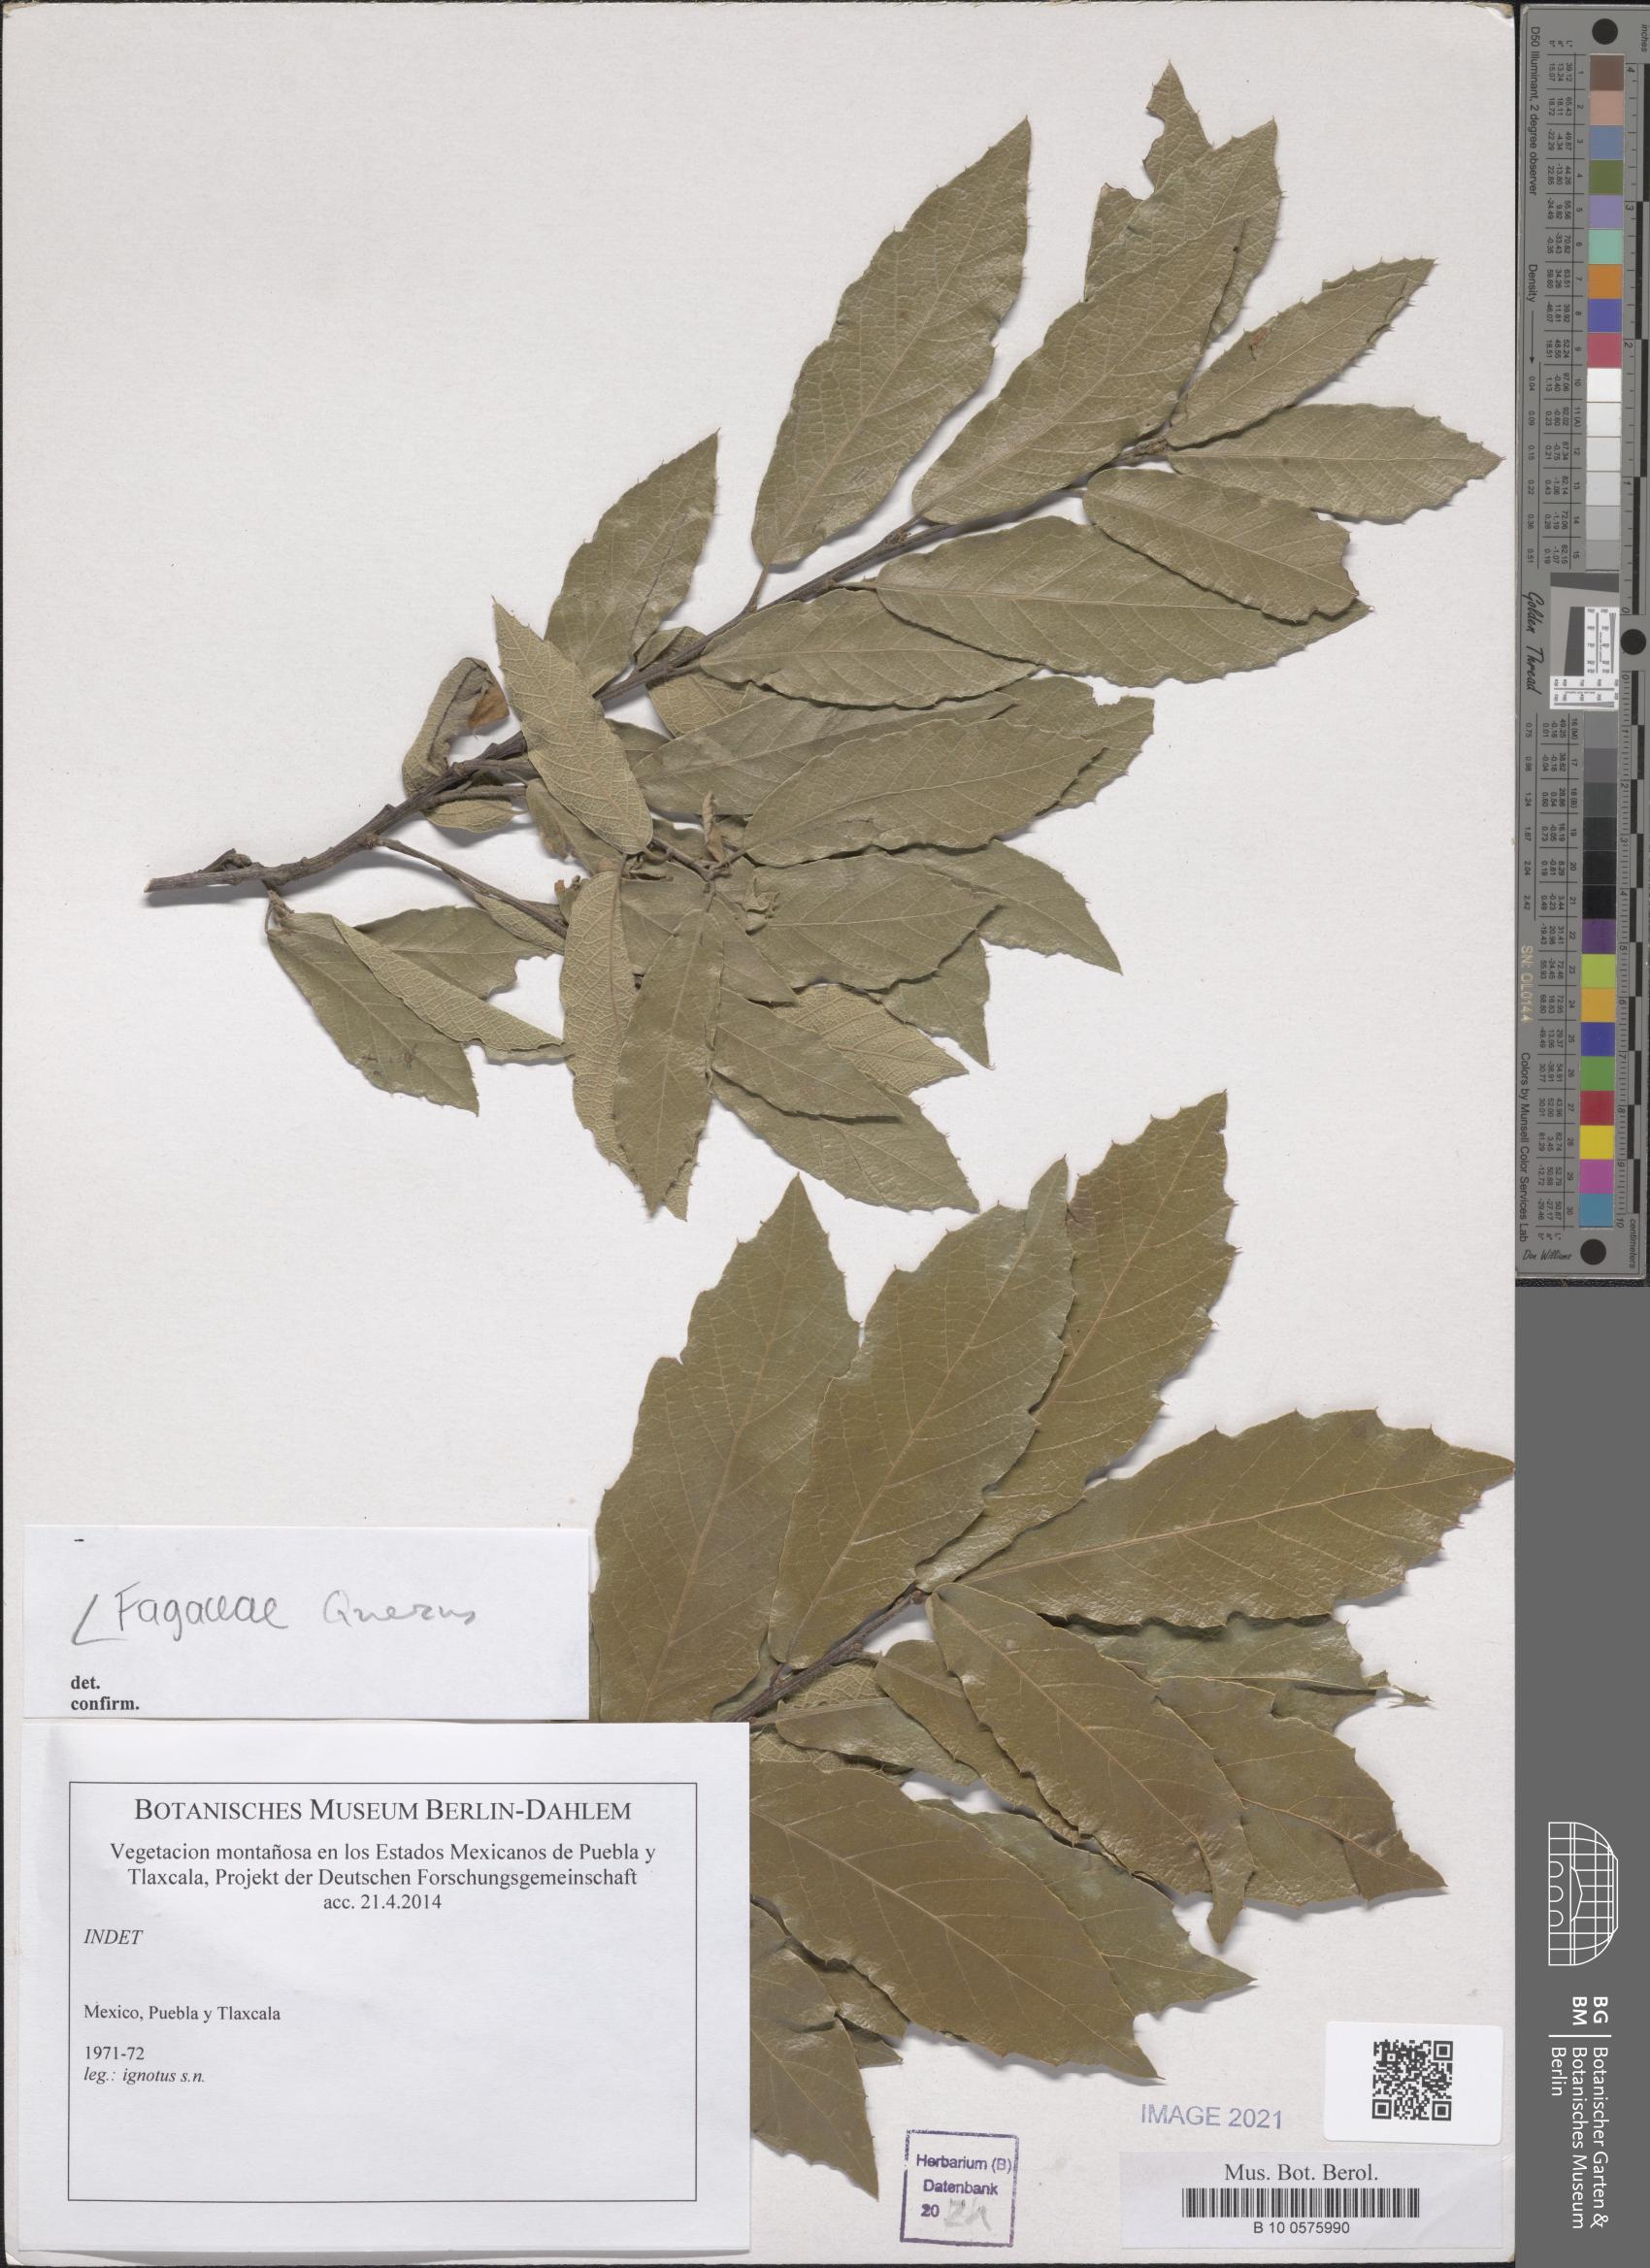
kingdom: Plantae
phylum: Tracheophyta
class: Magnoliopsida
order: Fagales
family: Fagaceae
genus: Quercus
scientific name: Quercus
